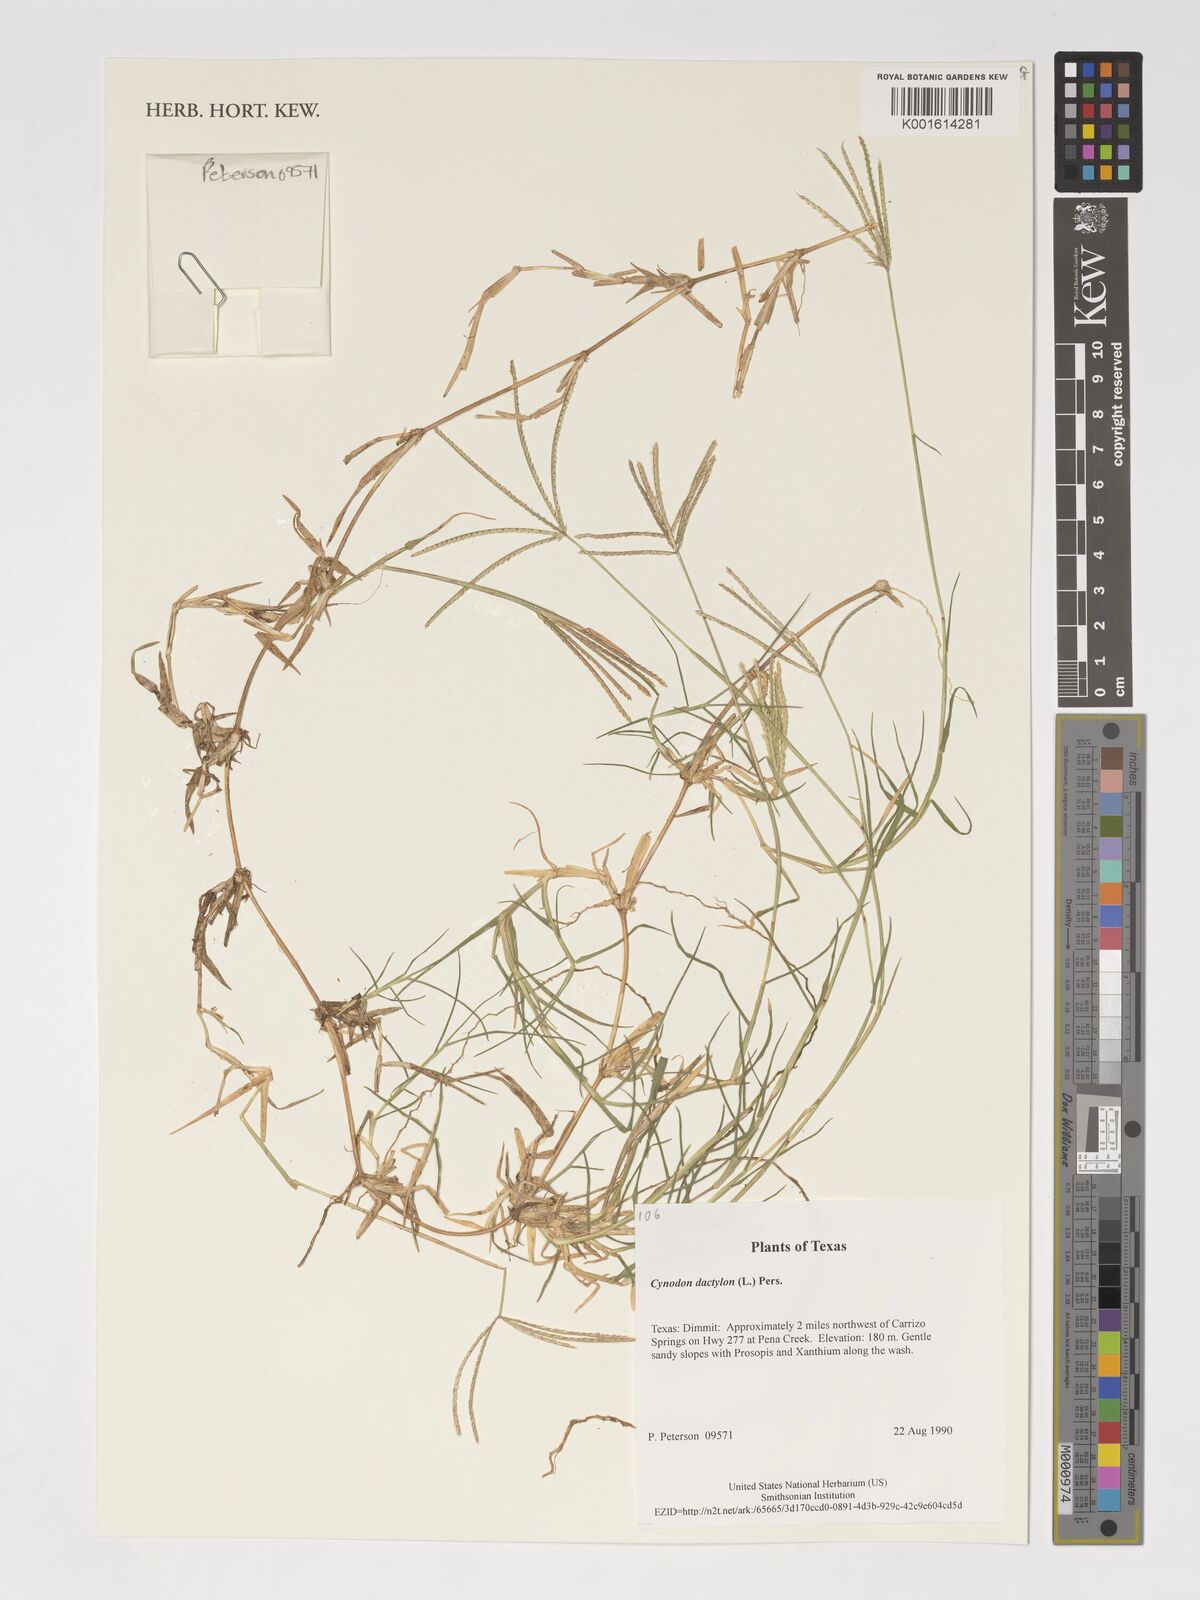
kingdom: Plantae
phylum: Tracheophyta
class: Liliopsida
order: Poales
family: Poaceae
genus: Cynodon
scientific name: Cynodon dactylon
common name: Bermuda grass
